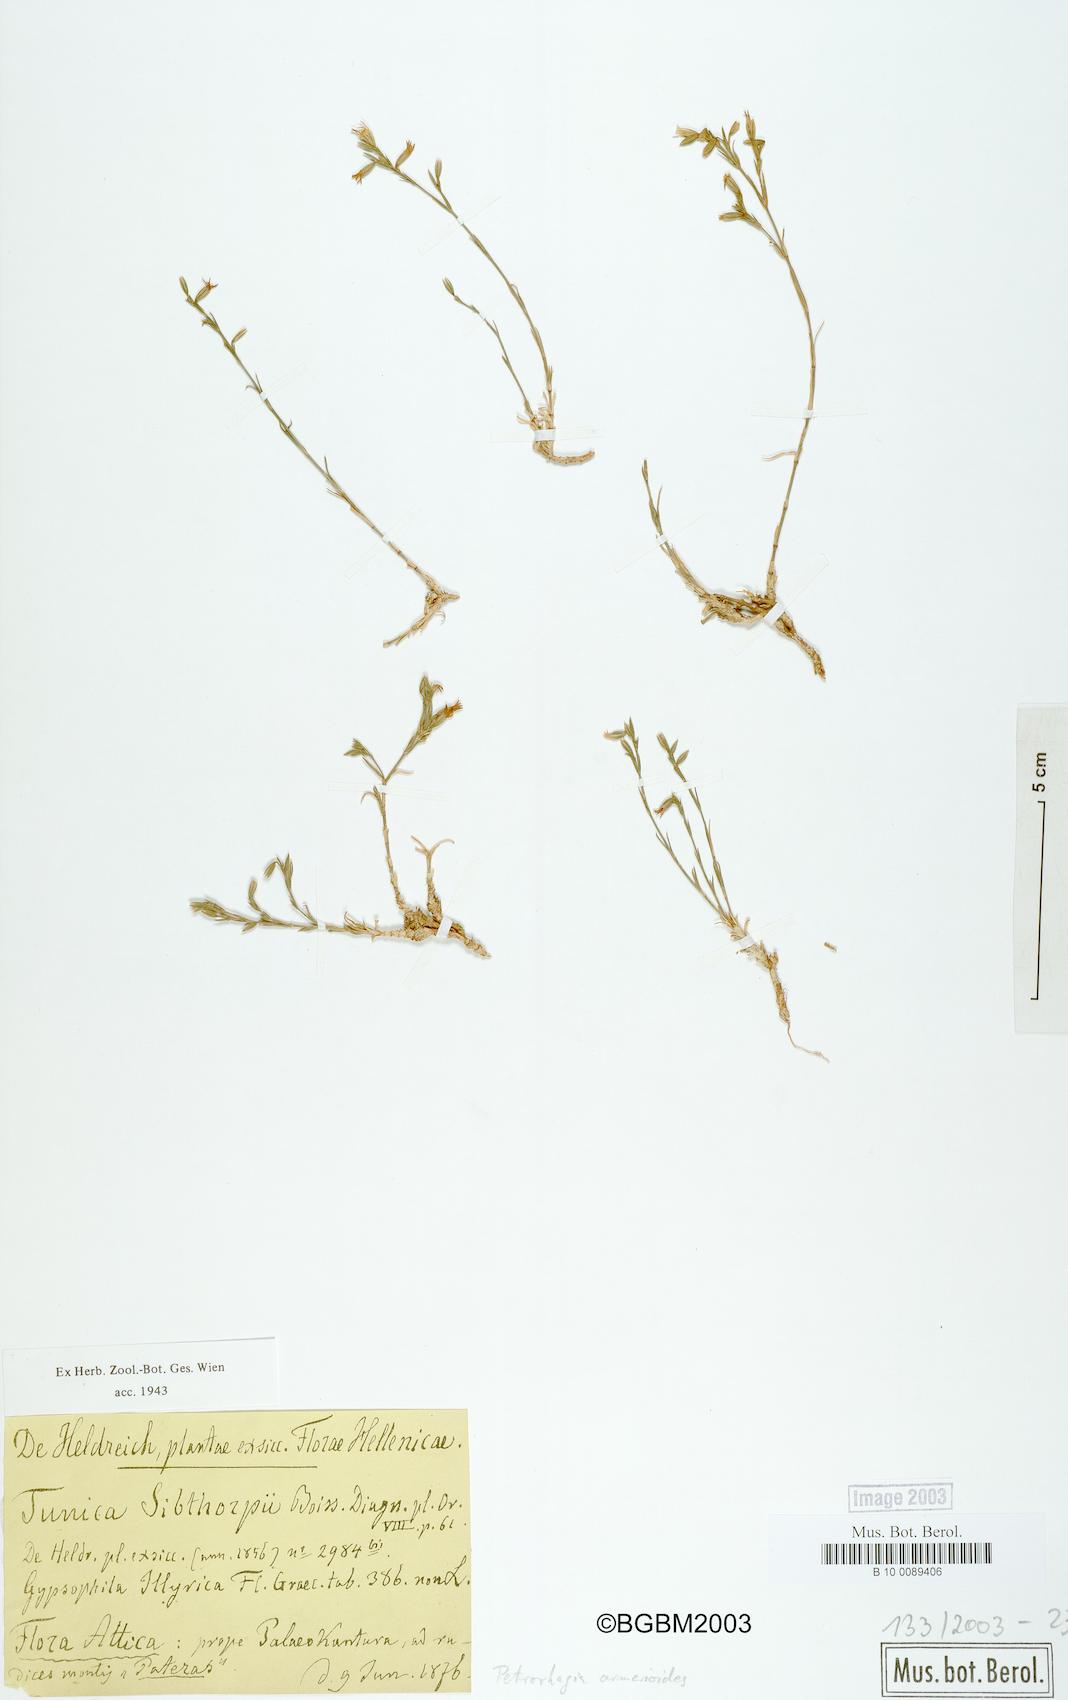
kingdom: Plantae
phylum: Tracheophyta
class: Magnoliopsida
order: Caryophyllales
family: Caryophyllaceae
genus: Dianthus
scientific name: Dianthus tunicoides
